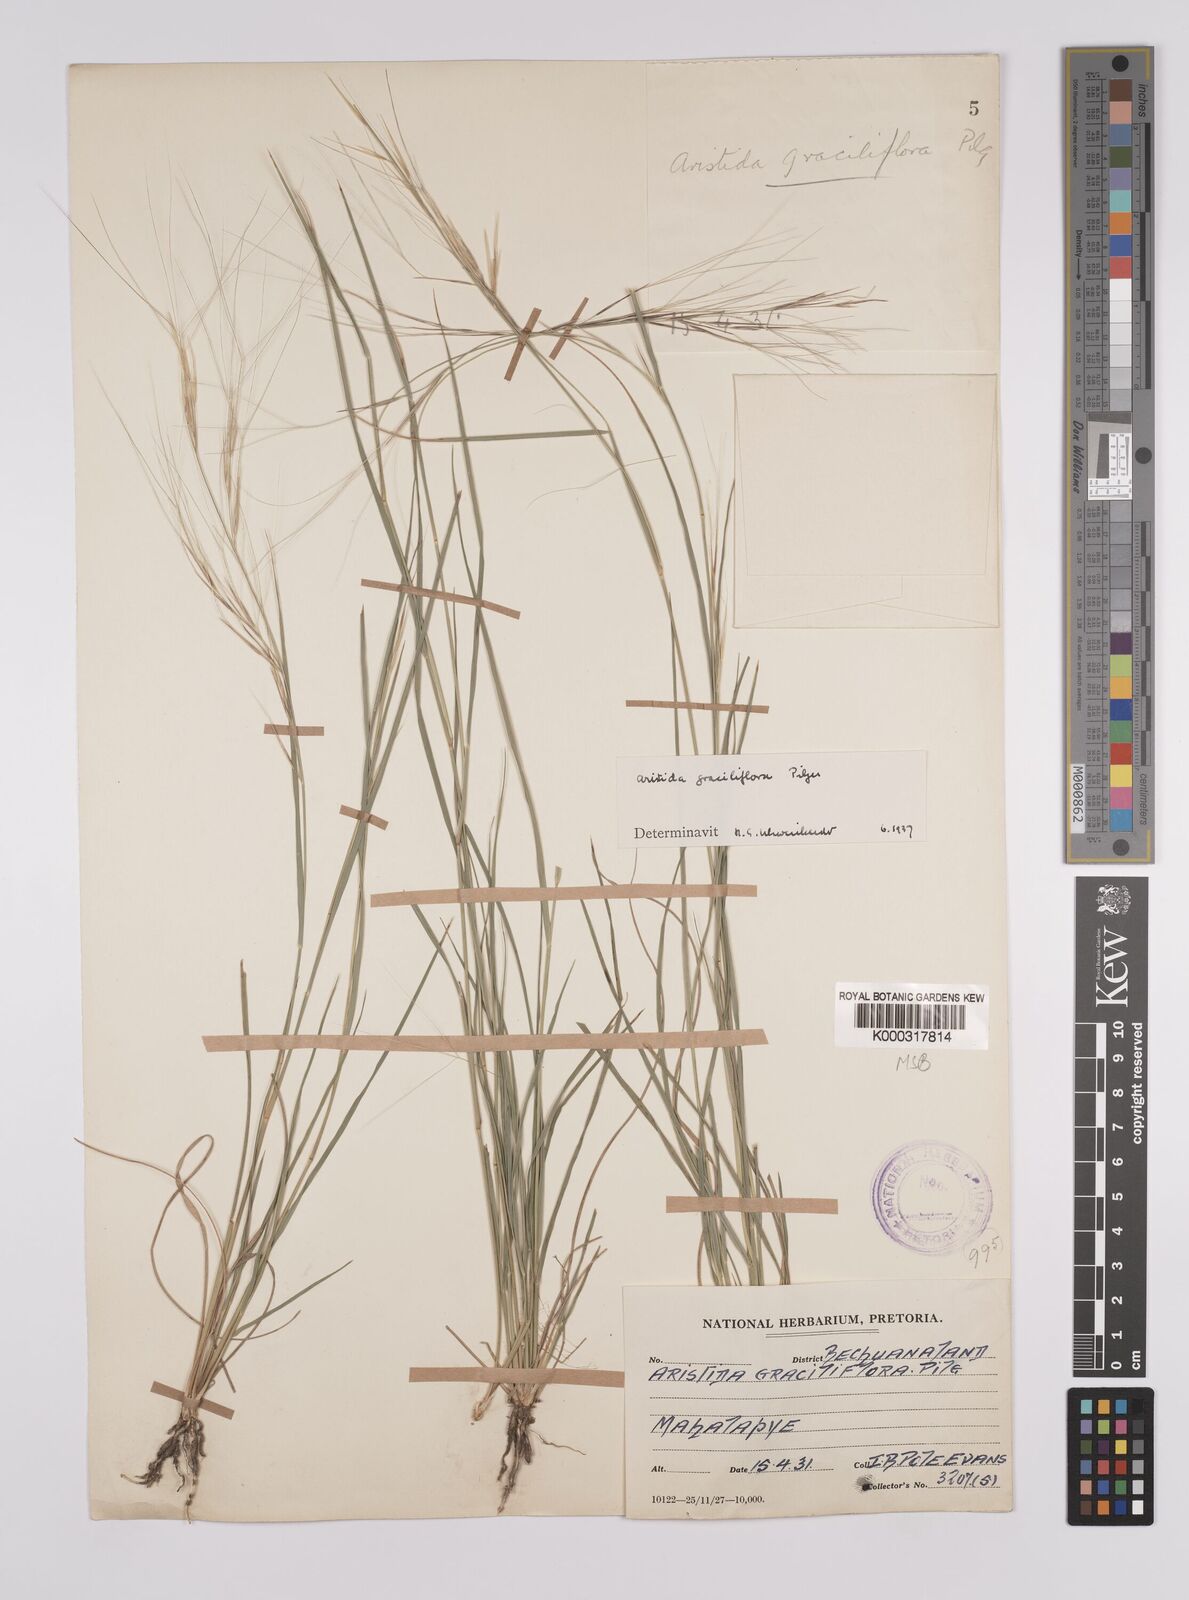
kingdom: Plantae
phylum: Tracheophyta
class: Liliopsida
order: Poales
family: Poaceae
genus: Aristida
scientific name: Aristida stipitata
